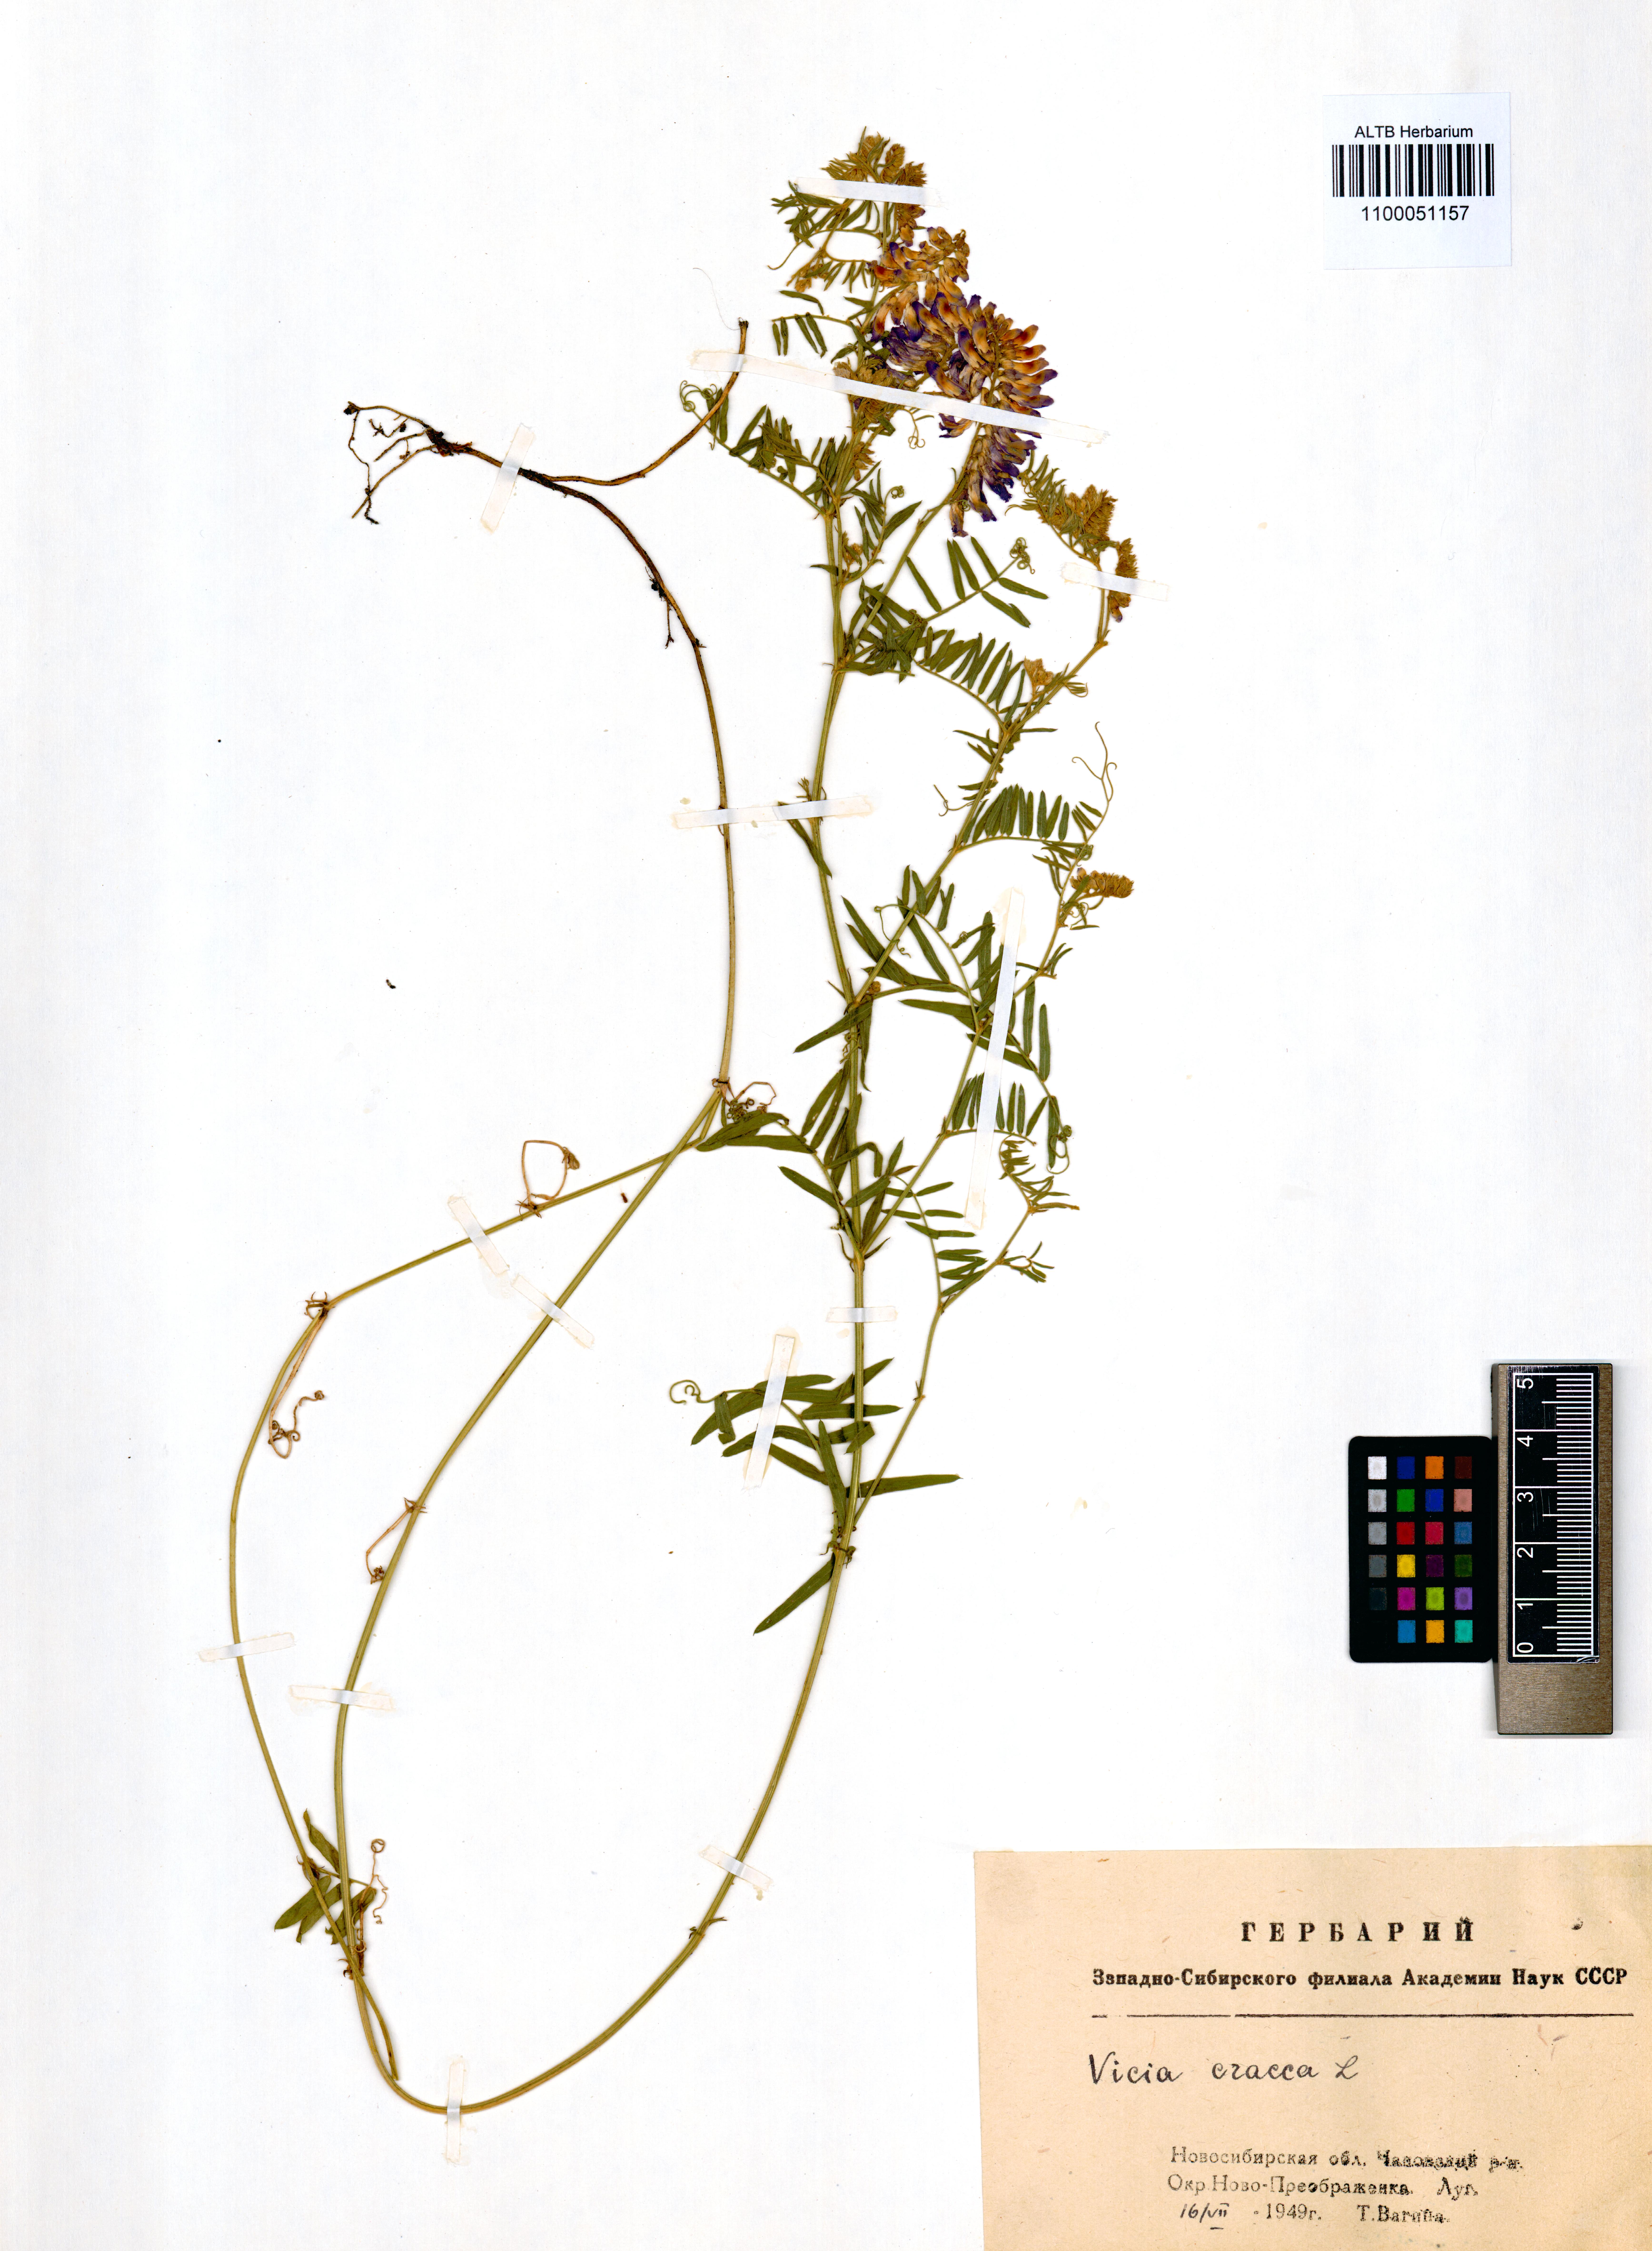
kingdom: Plantae
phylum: Tracheophyta
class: Magnoliopsida
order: Fabales
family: Fabaceae
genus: Vicia
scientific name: Vicia cracca
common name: Bird vetch
